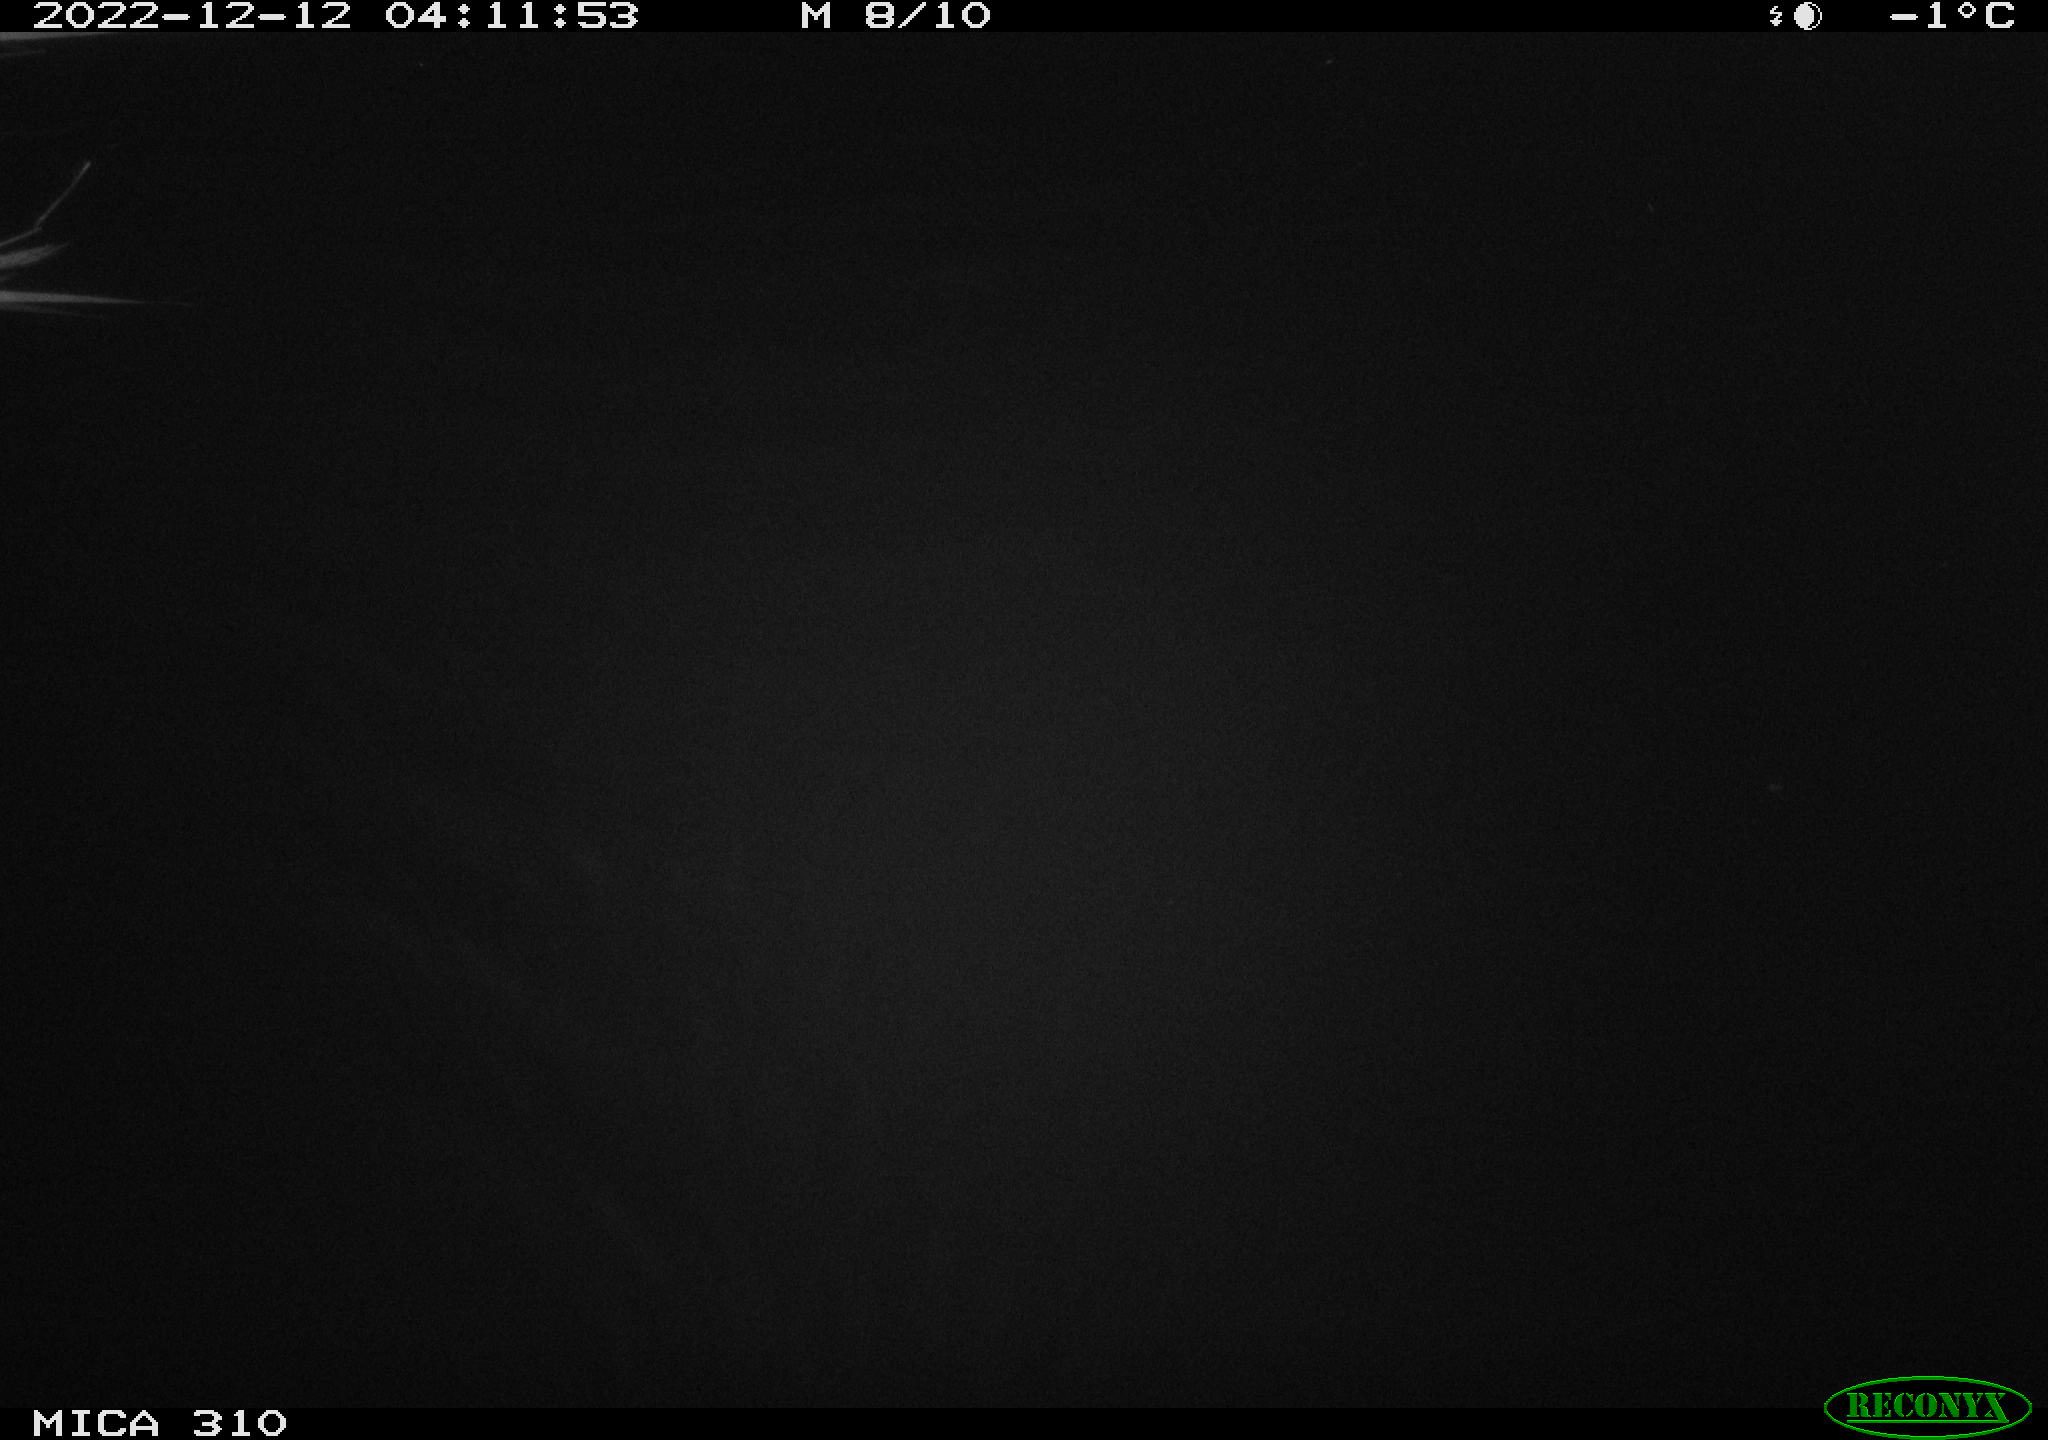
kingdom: Animalia
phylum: Chordata
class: Mammalia
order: Rodentia
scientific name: Rodentia
